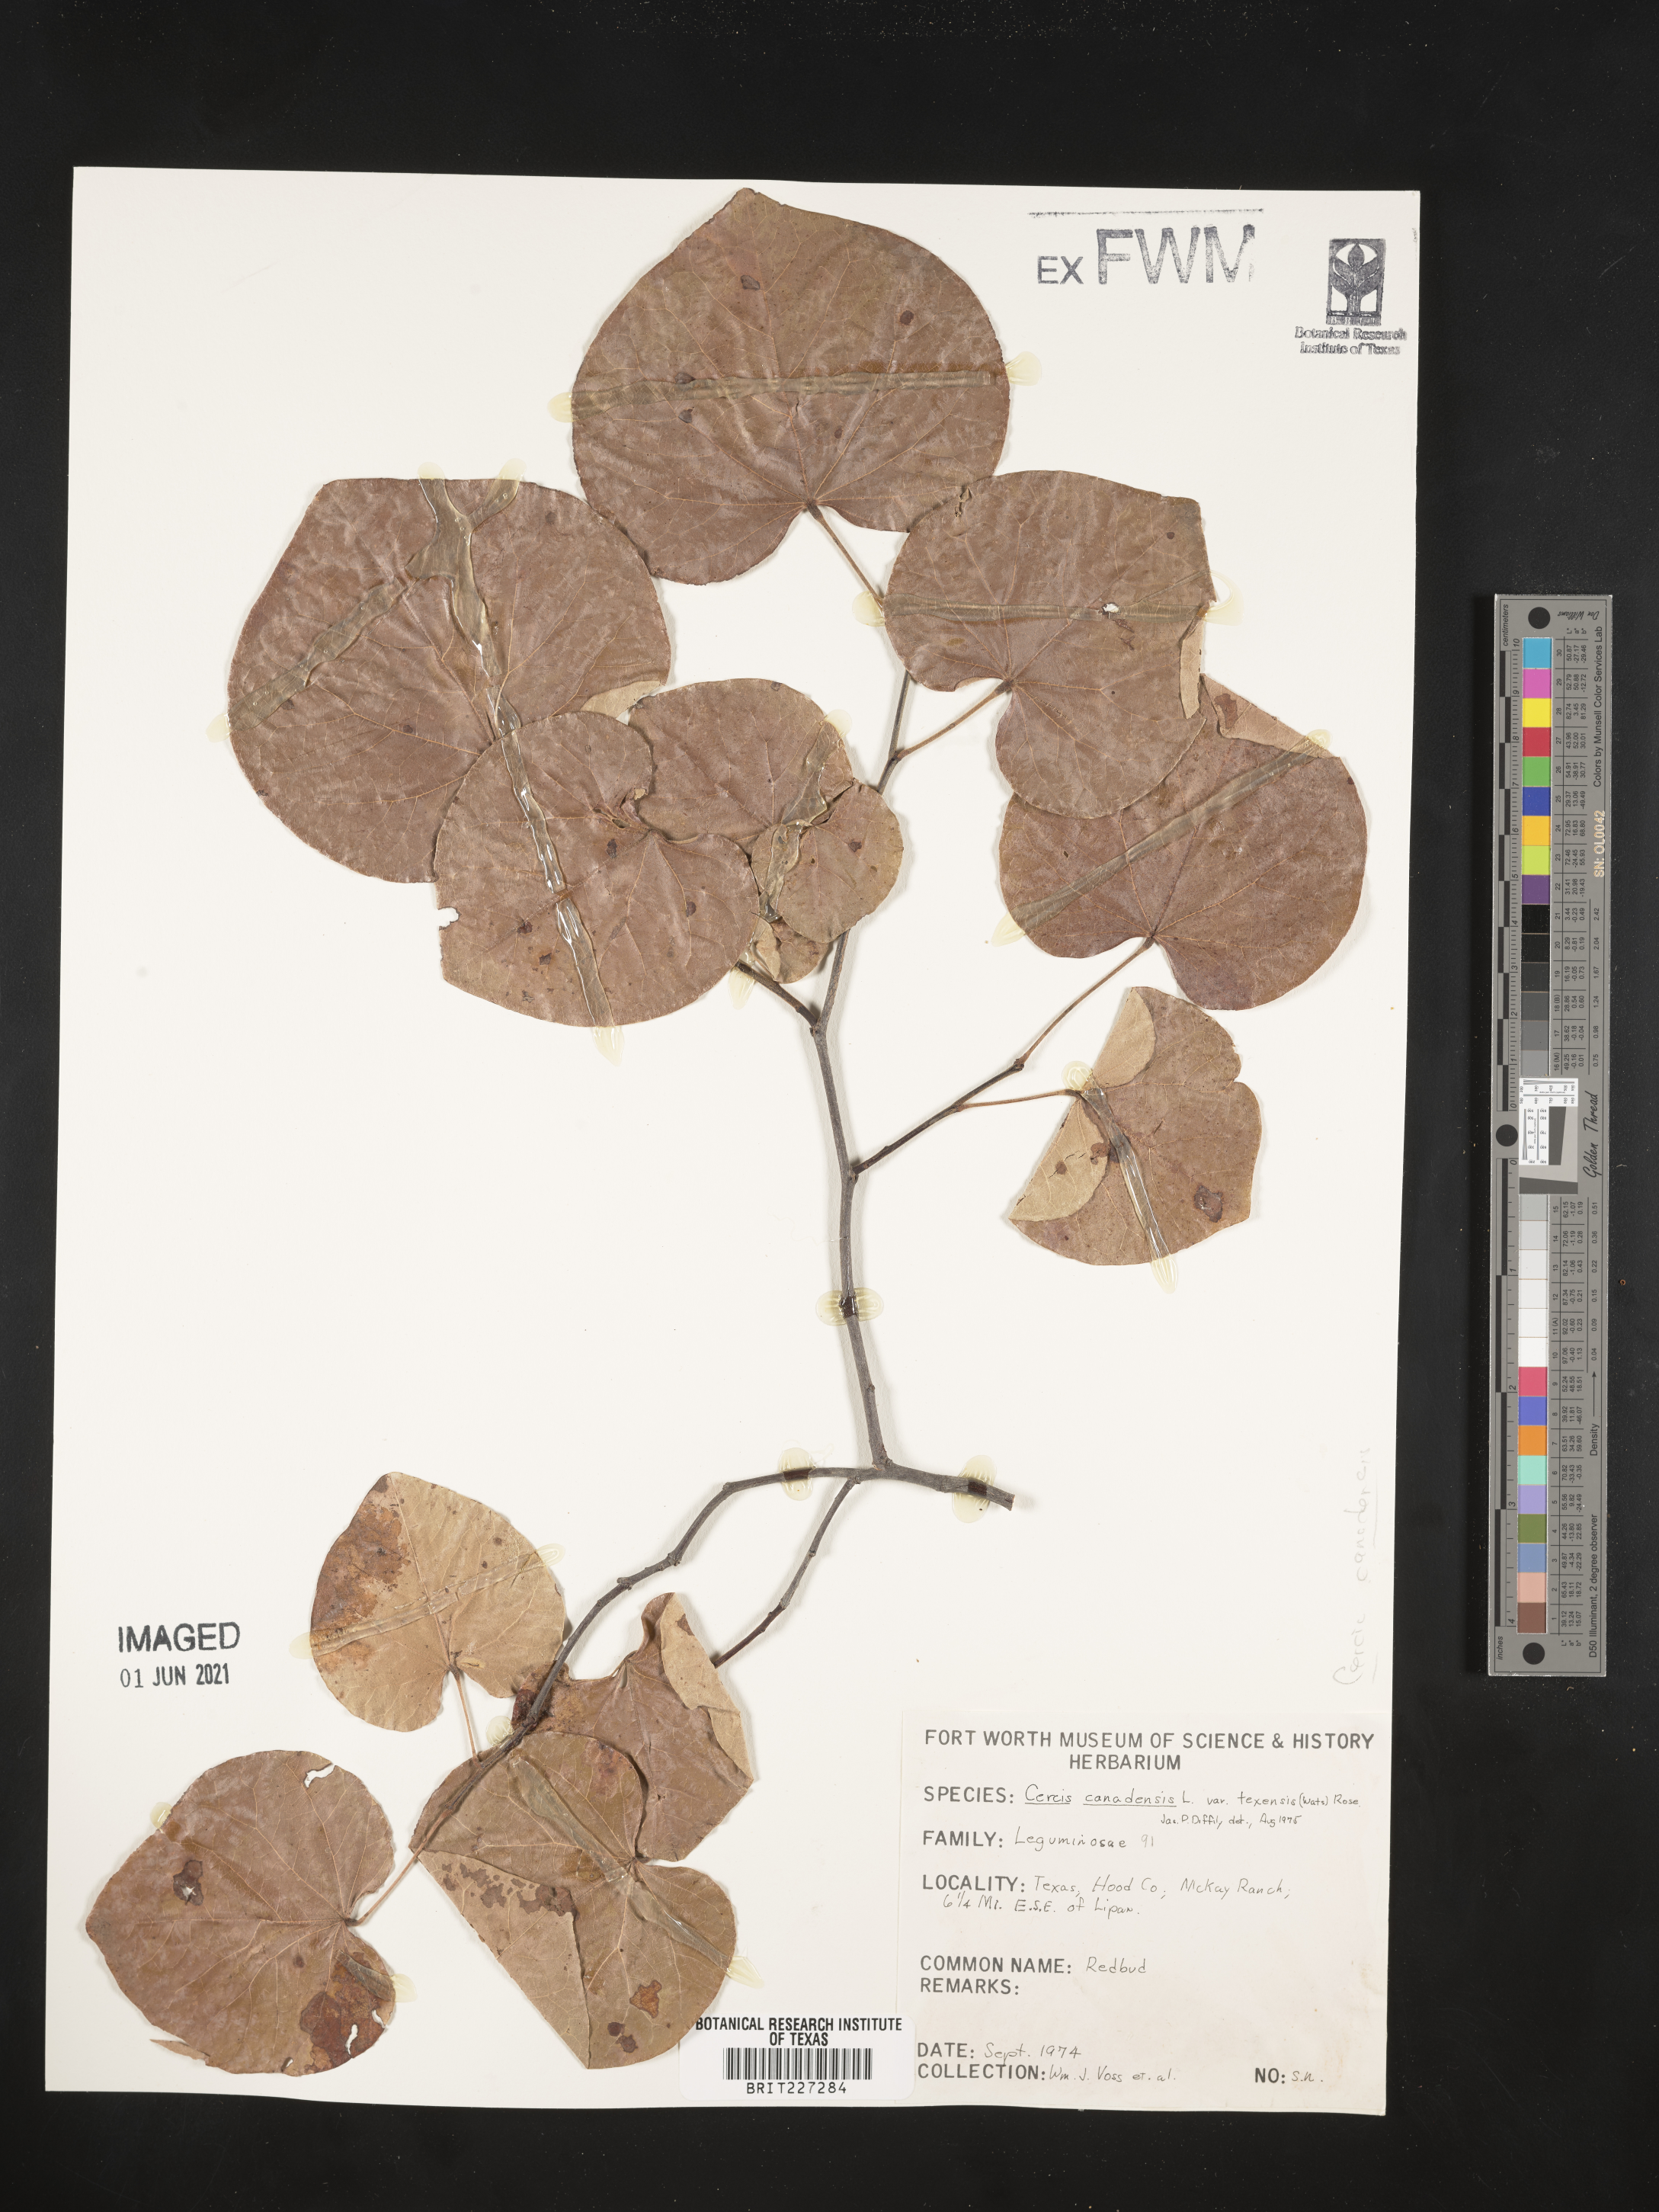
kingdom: Plantae
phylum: Tracheophyta
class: Magnoliopsida
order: Fabales
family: Fabaceae
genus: Cercis
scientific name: Cercis canadensis
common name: Eastern redbud
